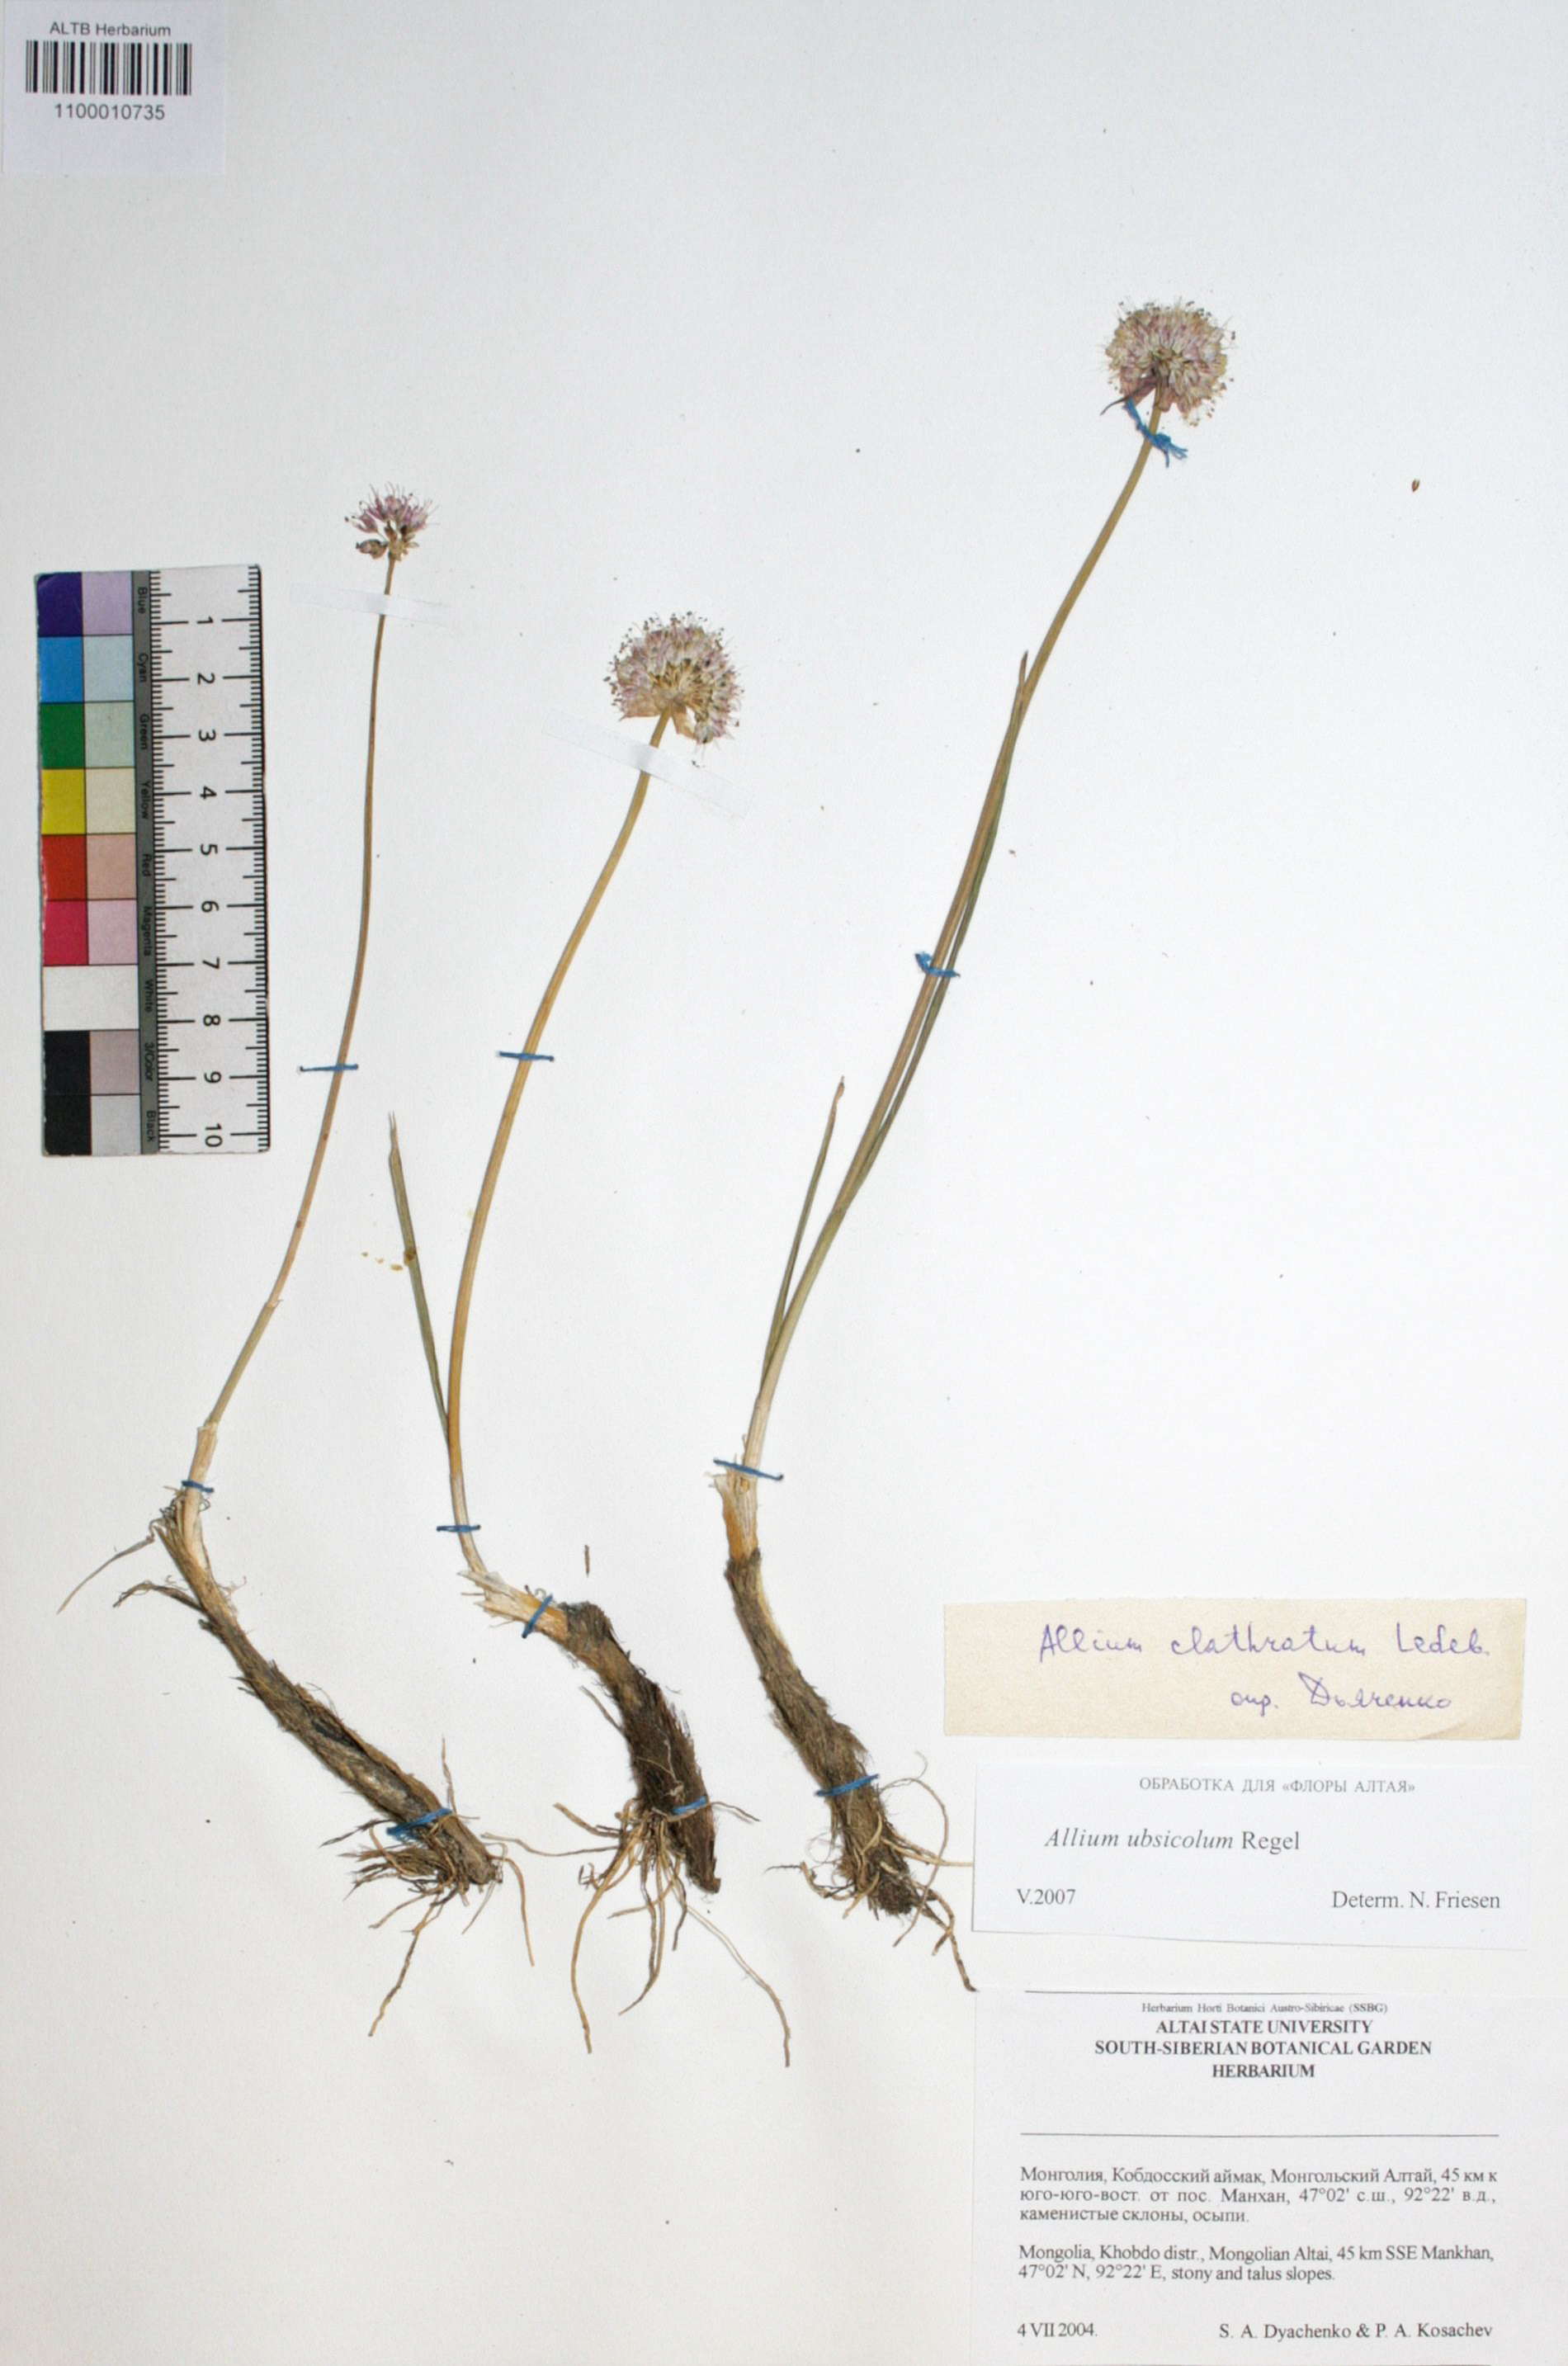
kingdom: Plantae
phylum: Tracheophyta
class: Liliopsida
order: Asparagales
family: Amaryllidaceae
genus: Allium
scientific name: Allium ubsicola
